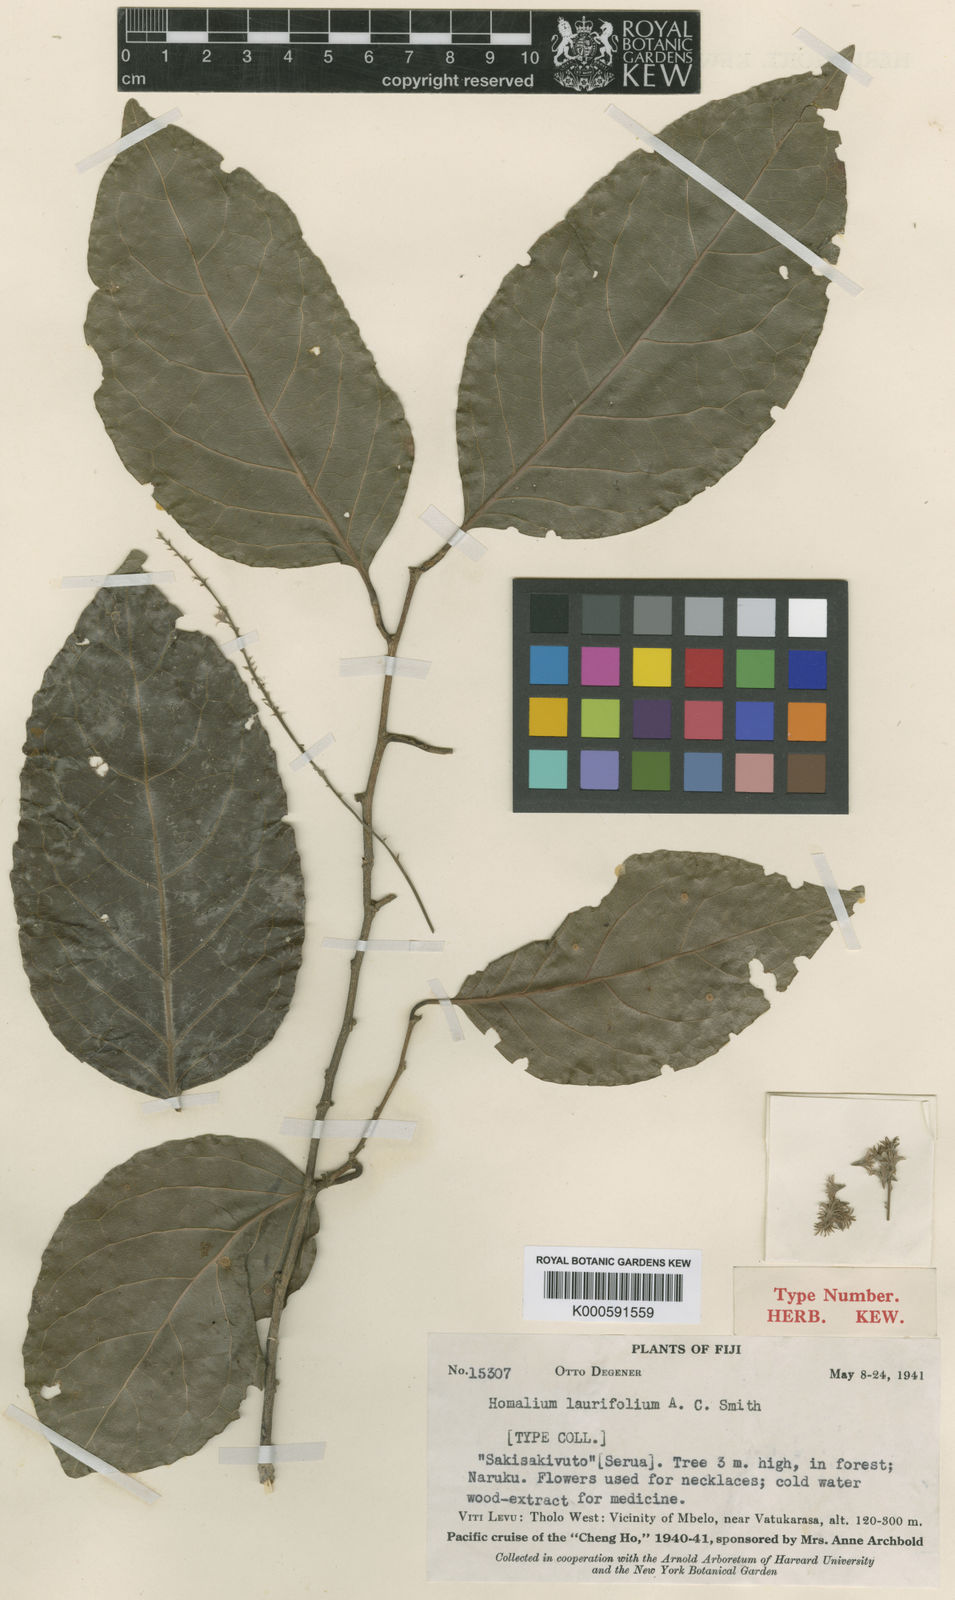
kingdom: Plantae
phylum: Tracheophyta
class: Magnoliopsida
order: Malpighiales
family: Salicaceae
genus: Homalium
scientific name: Homalium laurifolium
